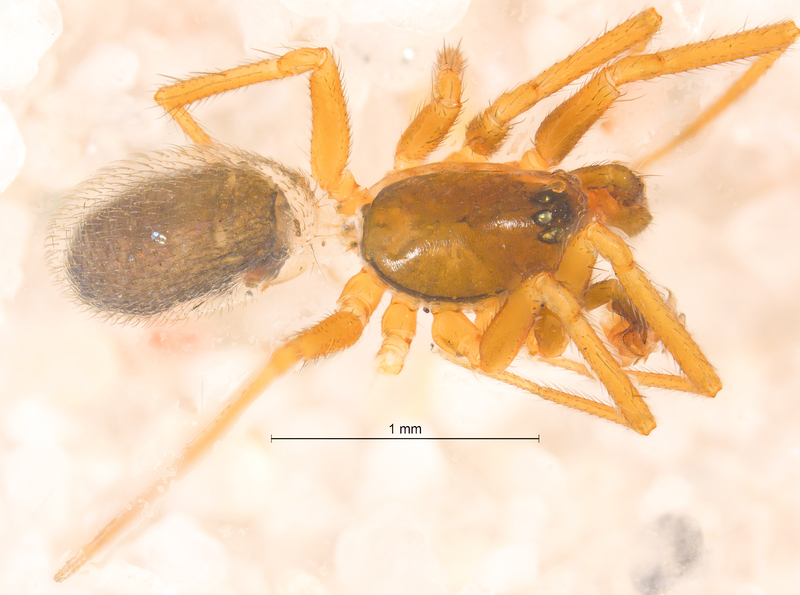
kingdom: Animalia
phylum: Arthropoda
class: Arachnida
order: Araneae
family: Linyphiidae
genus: Agyneta
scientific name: Agyneta affinis
